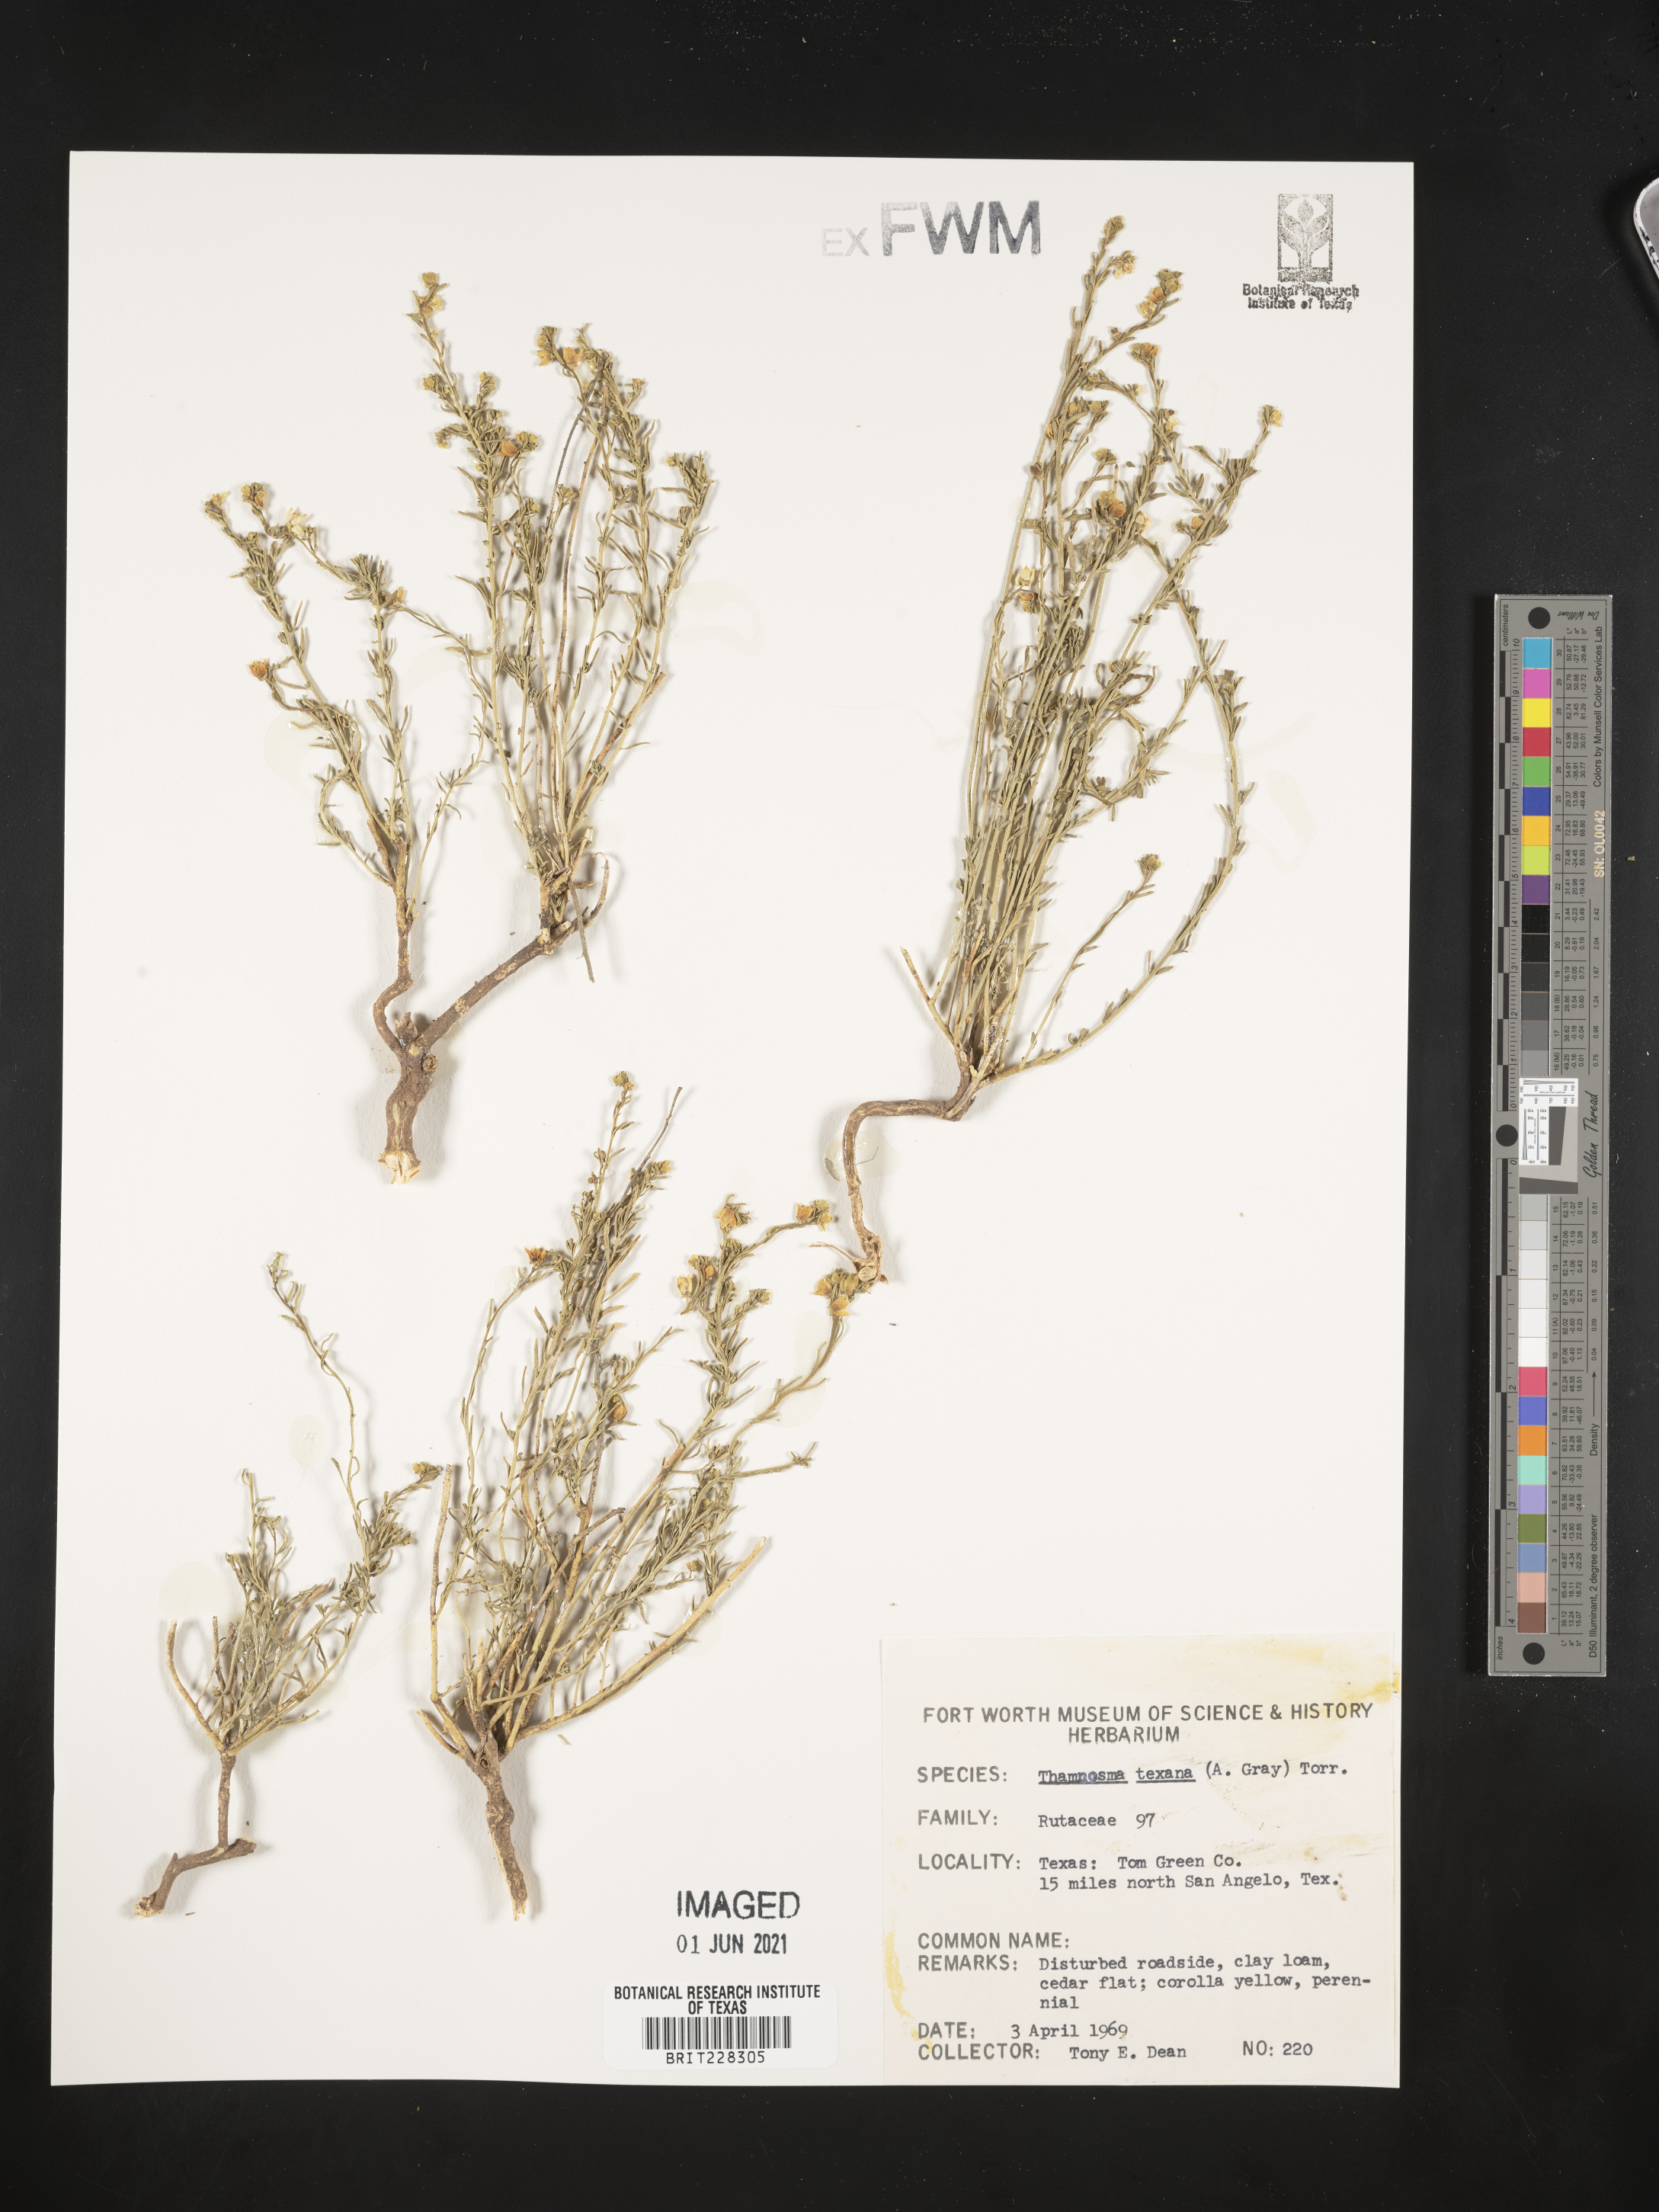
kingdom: Plantae
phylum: Tracheophyta
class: Magnoliopsida
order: Sapindales
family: Rutaceae
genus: Thamnosma
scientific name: Thamnosma texana
